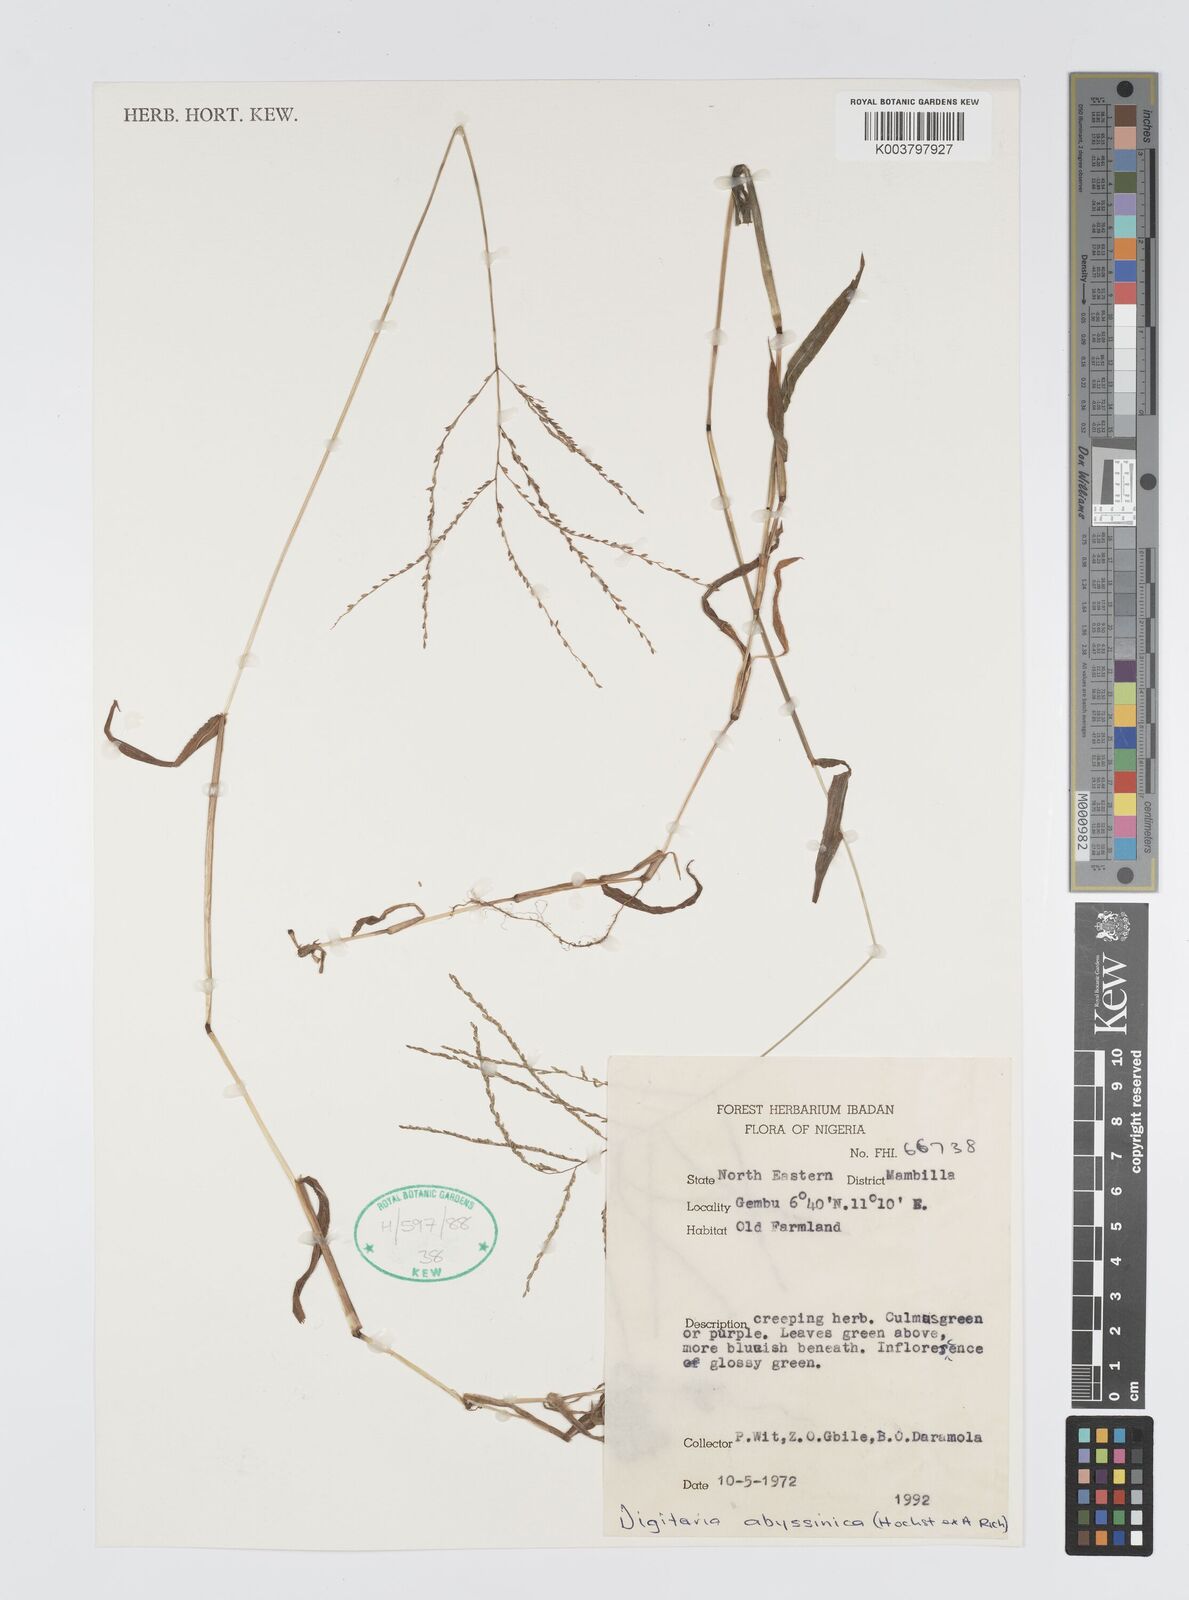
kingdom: Plantae
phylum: Tracheophyta
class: Liliopsida
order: Poales
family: Poaceae
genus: Digitaria
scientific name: Digitaria abyssinica
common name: African couchgrass
